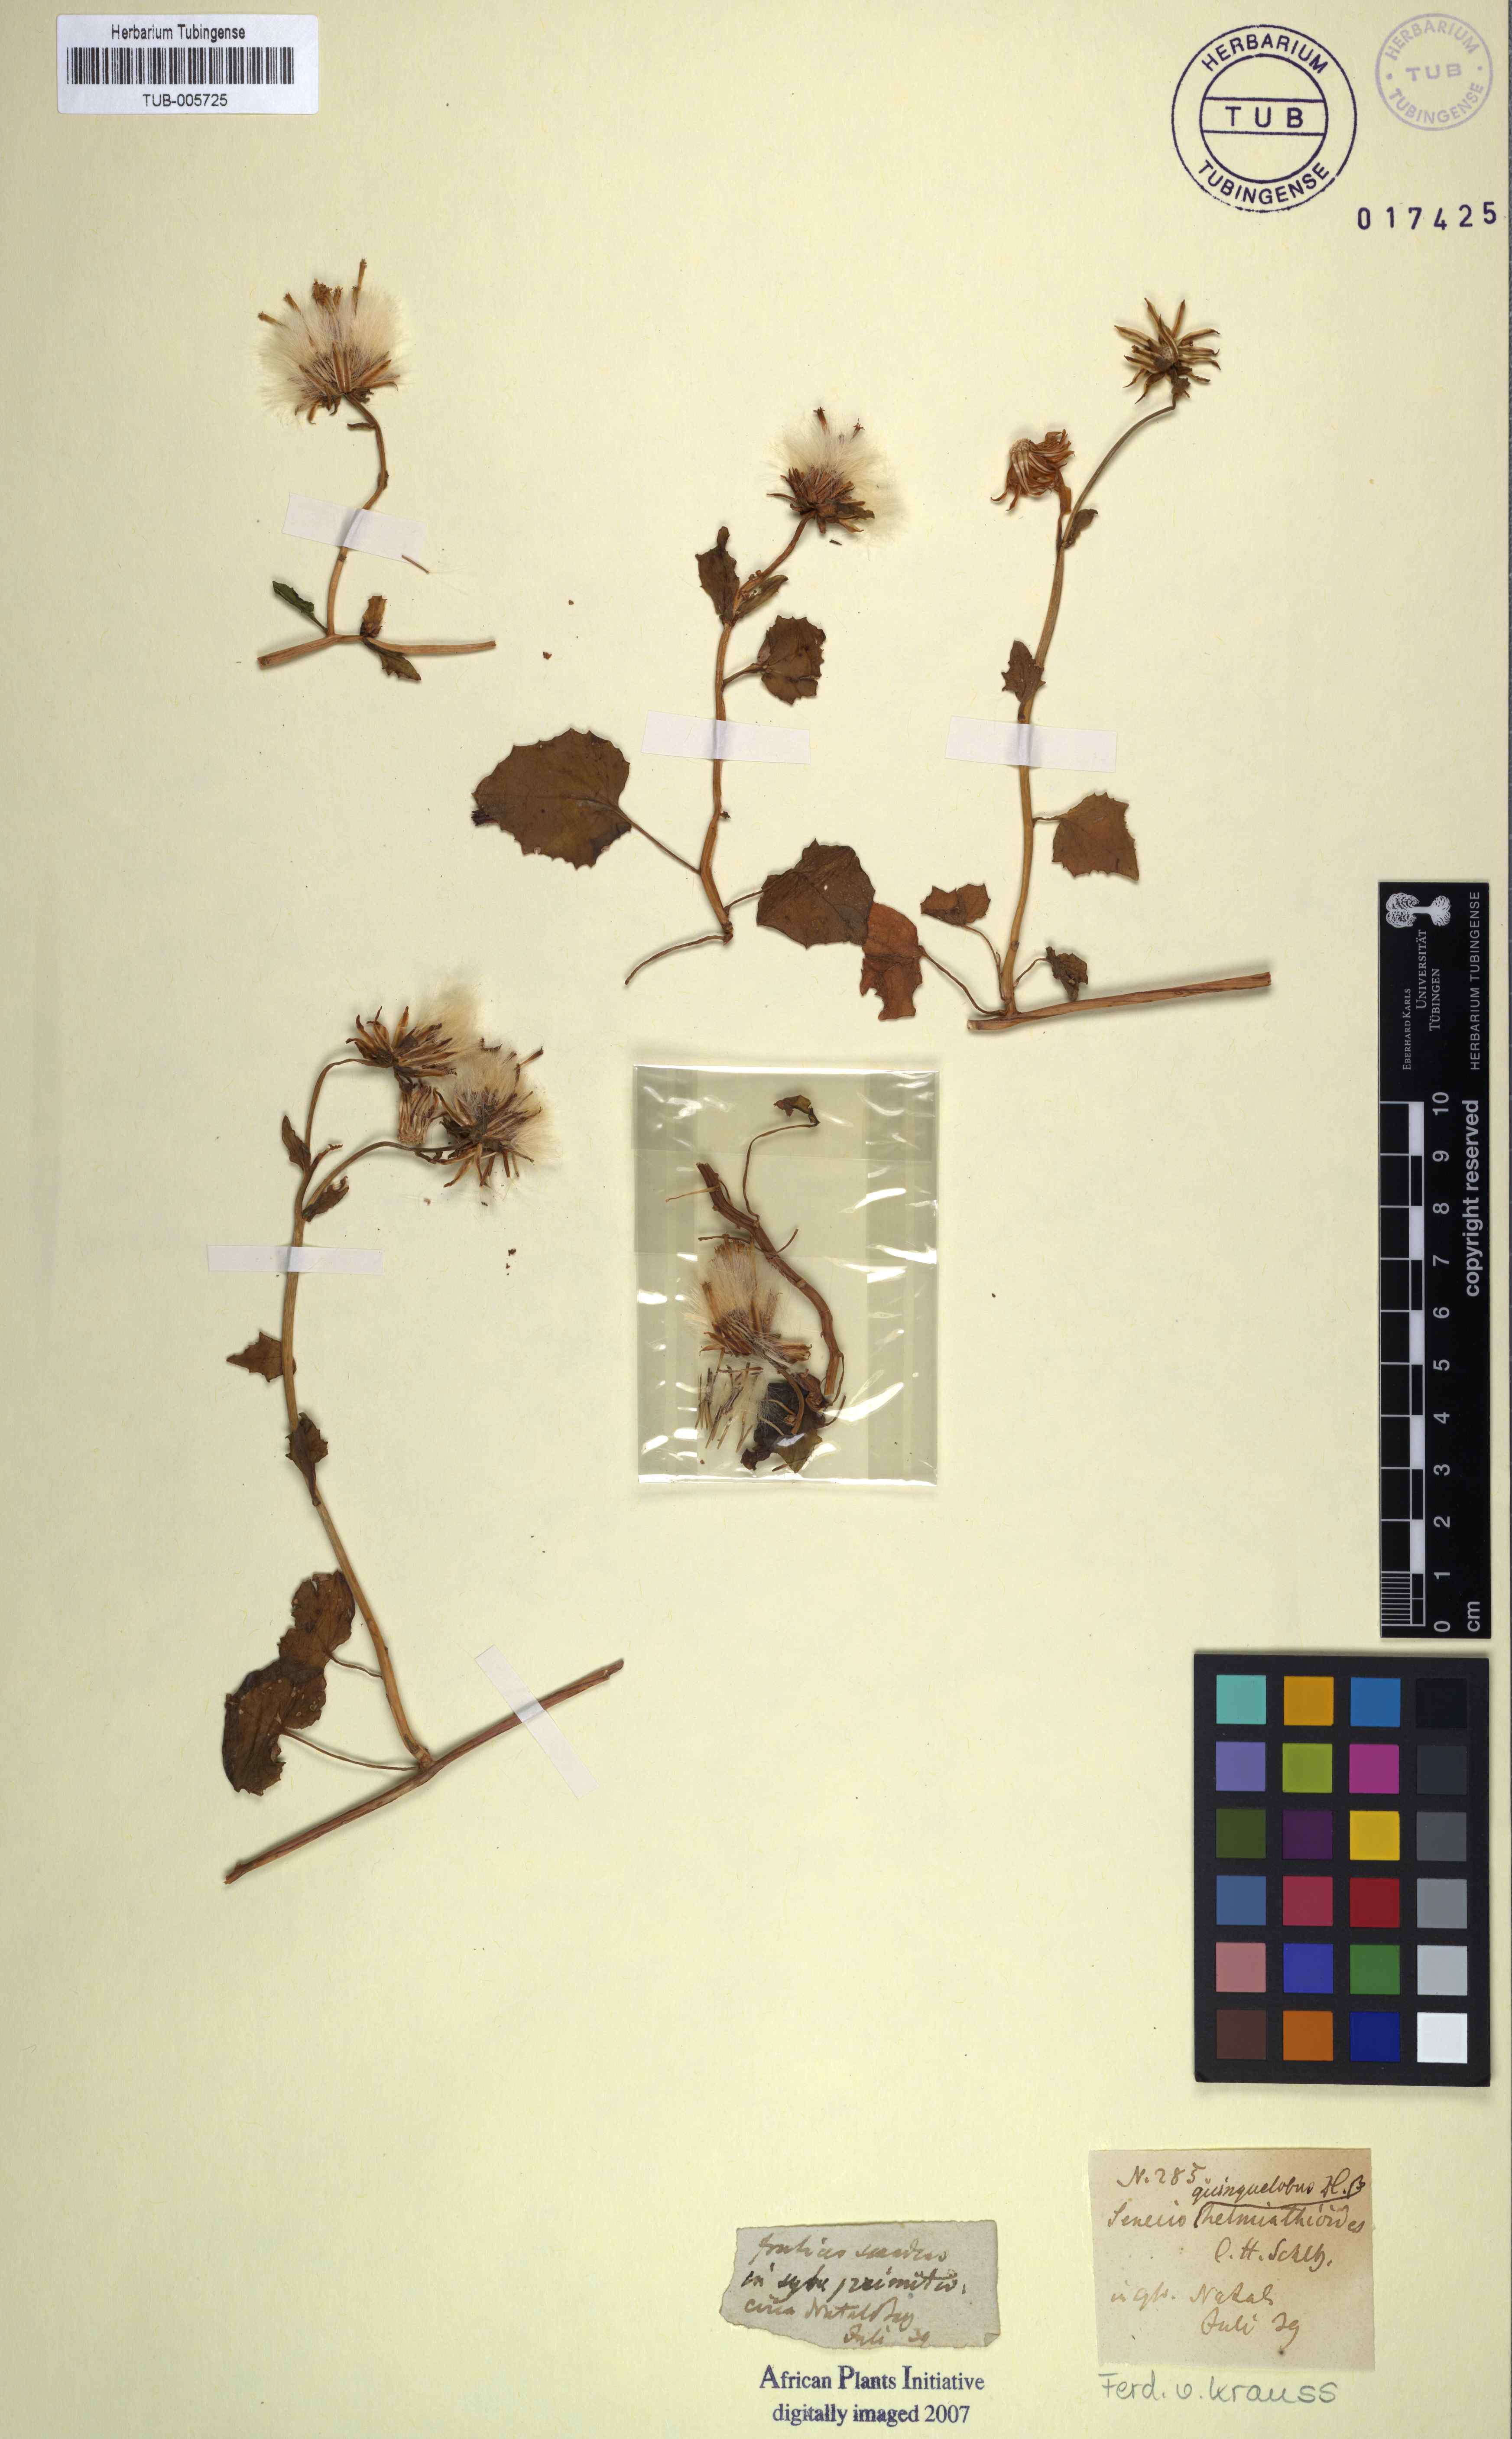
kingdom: Plantae
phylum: Tracheophyta
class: Magnoliopsida
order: Asterales
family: Asteraceae
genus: Senecio
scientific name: Senecio quinquelobus
